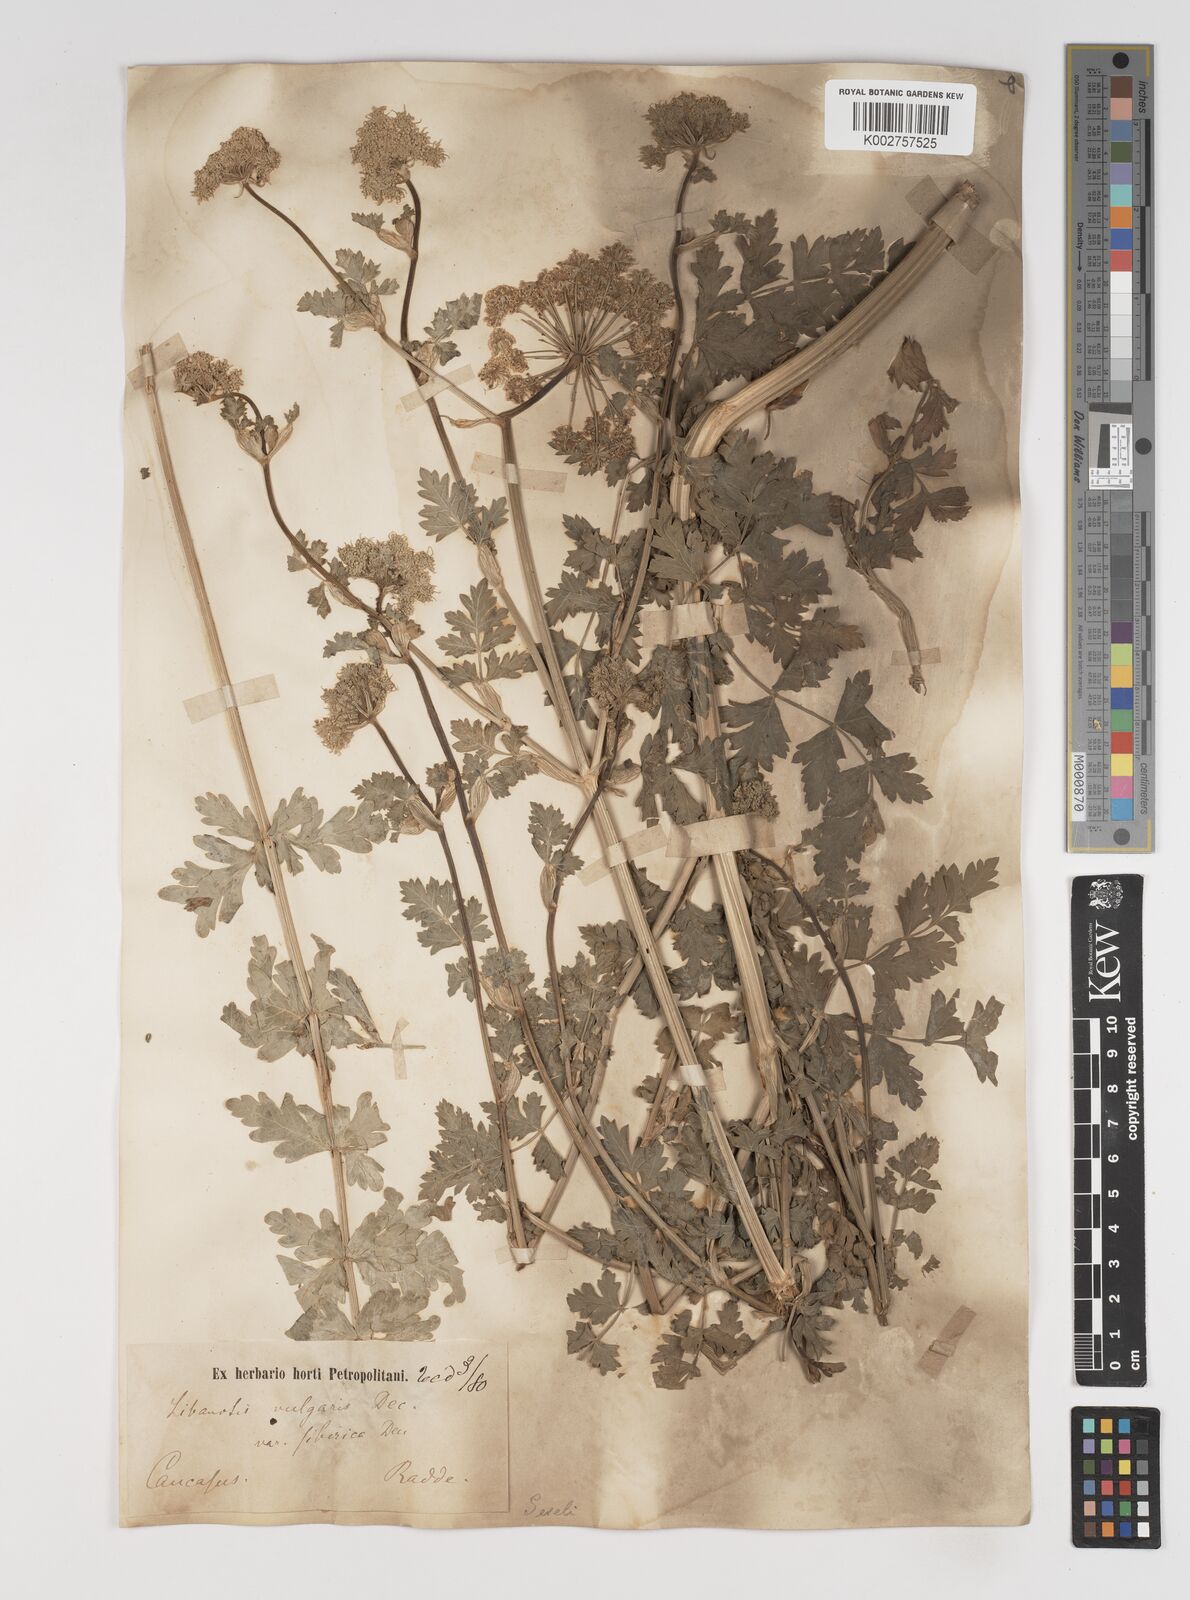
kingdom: Plantae
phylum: Tracheophyta
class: Magnoliopsida
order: Apiales
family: Apiaceae
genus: Seseli
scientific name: Seseli libanotis
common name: Mooncarrot
